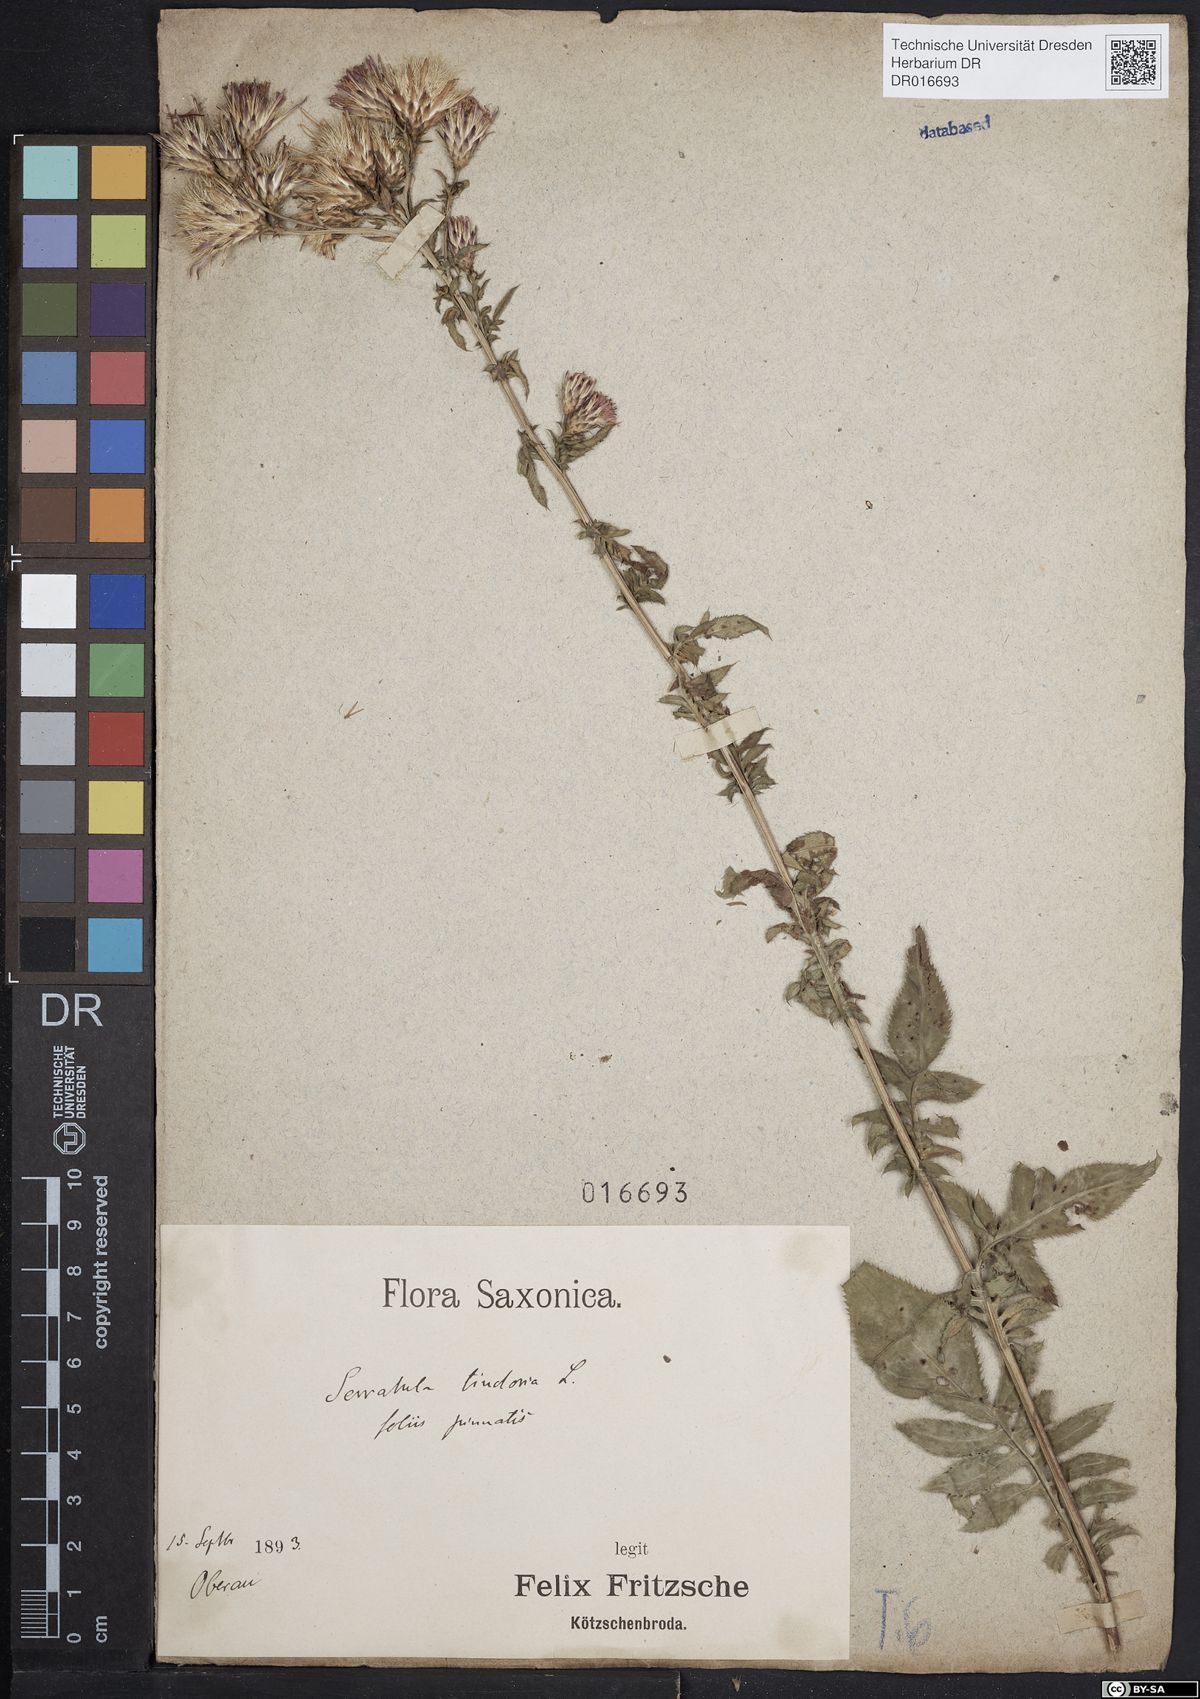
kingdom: Plantae
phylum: Tracheophyta
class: Magnoliopsida
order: Asterales
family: Asteraceae
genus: Serratula
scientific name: Serratula tinctoria
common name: Saw-wort
